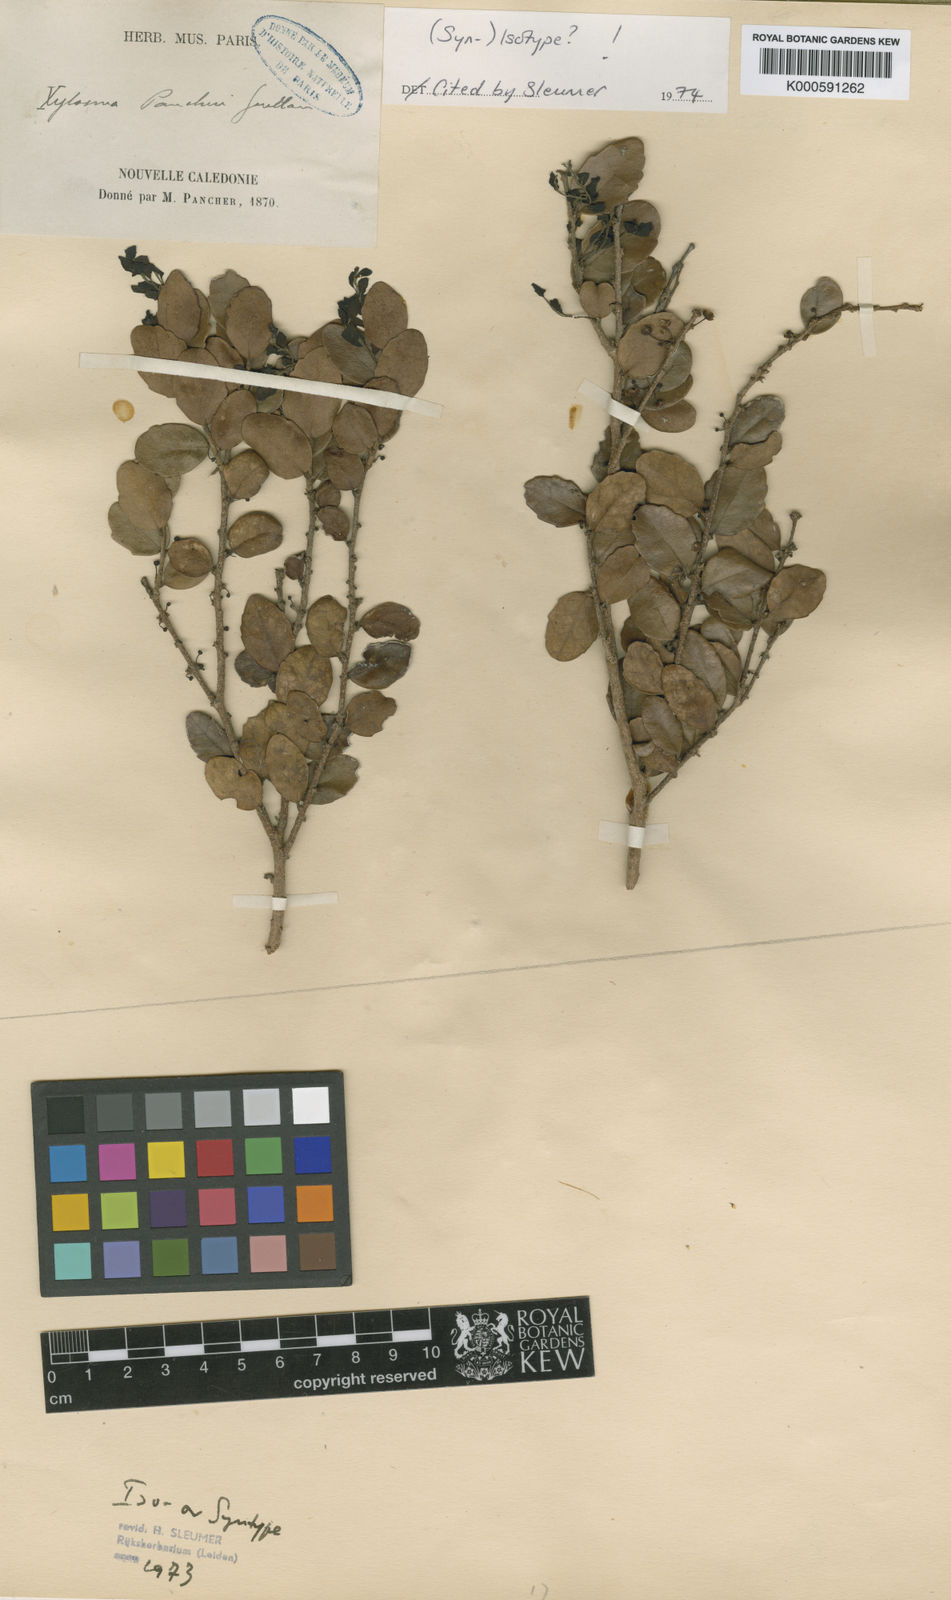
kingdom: Plantae
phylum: Tracheophyta
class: Magnoliopsida
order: Malpighiales
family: Salicaceae
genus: Xylosma
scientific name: Xylosma pancheri
